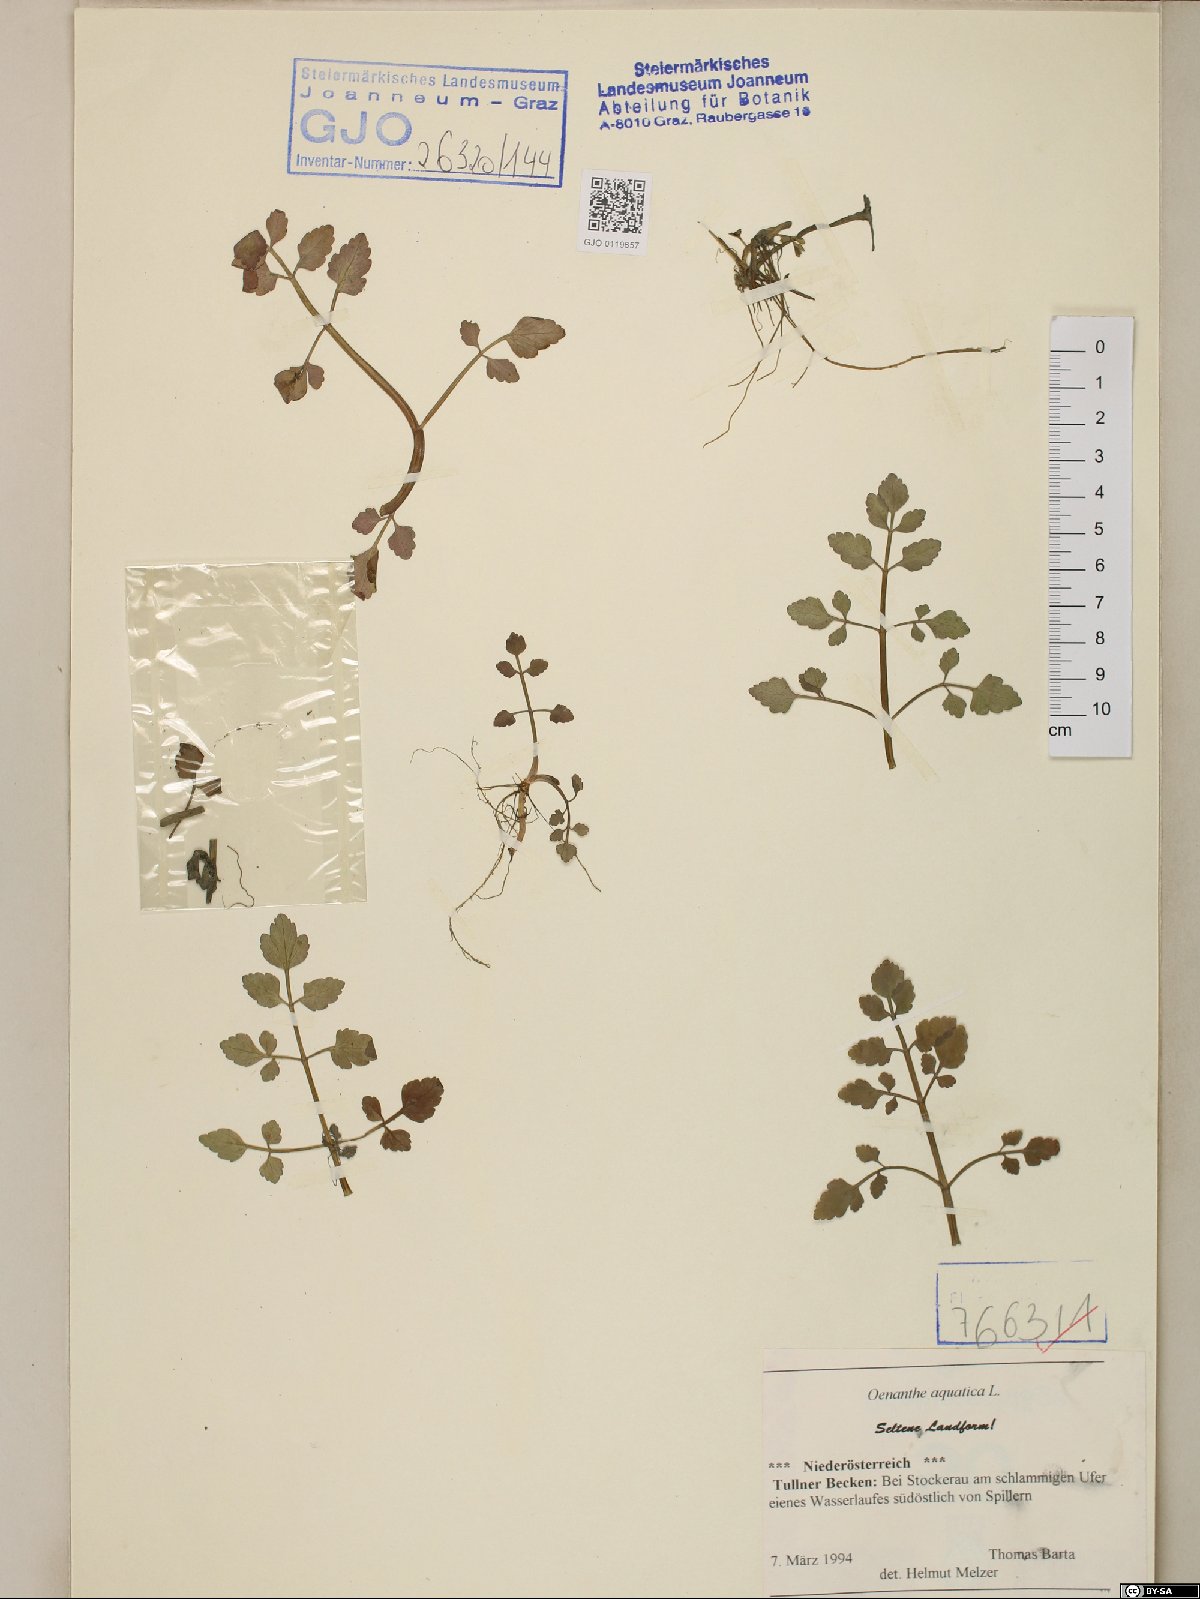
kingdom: Plantae
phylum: Tracheophyta
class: Magnoliopsida
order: Apiales
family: Apiaceae
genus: Oenanthe
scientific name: Oenanthe aquatica
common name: Fine-leaved water-dropwort
